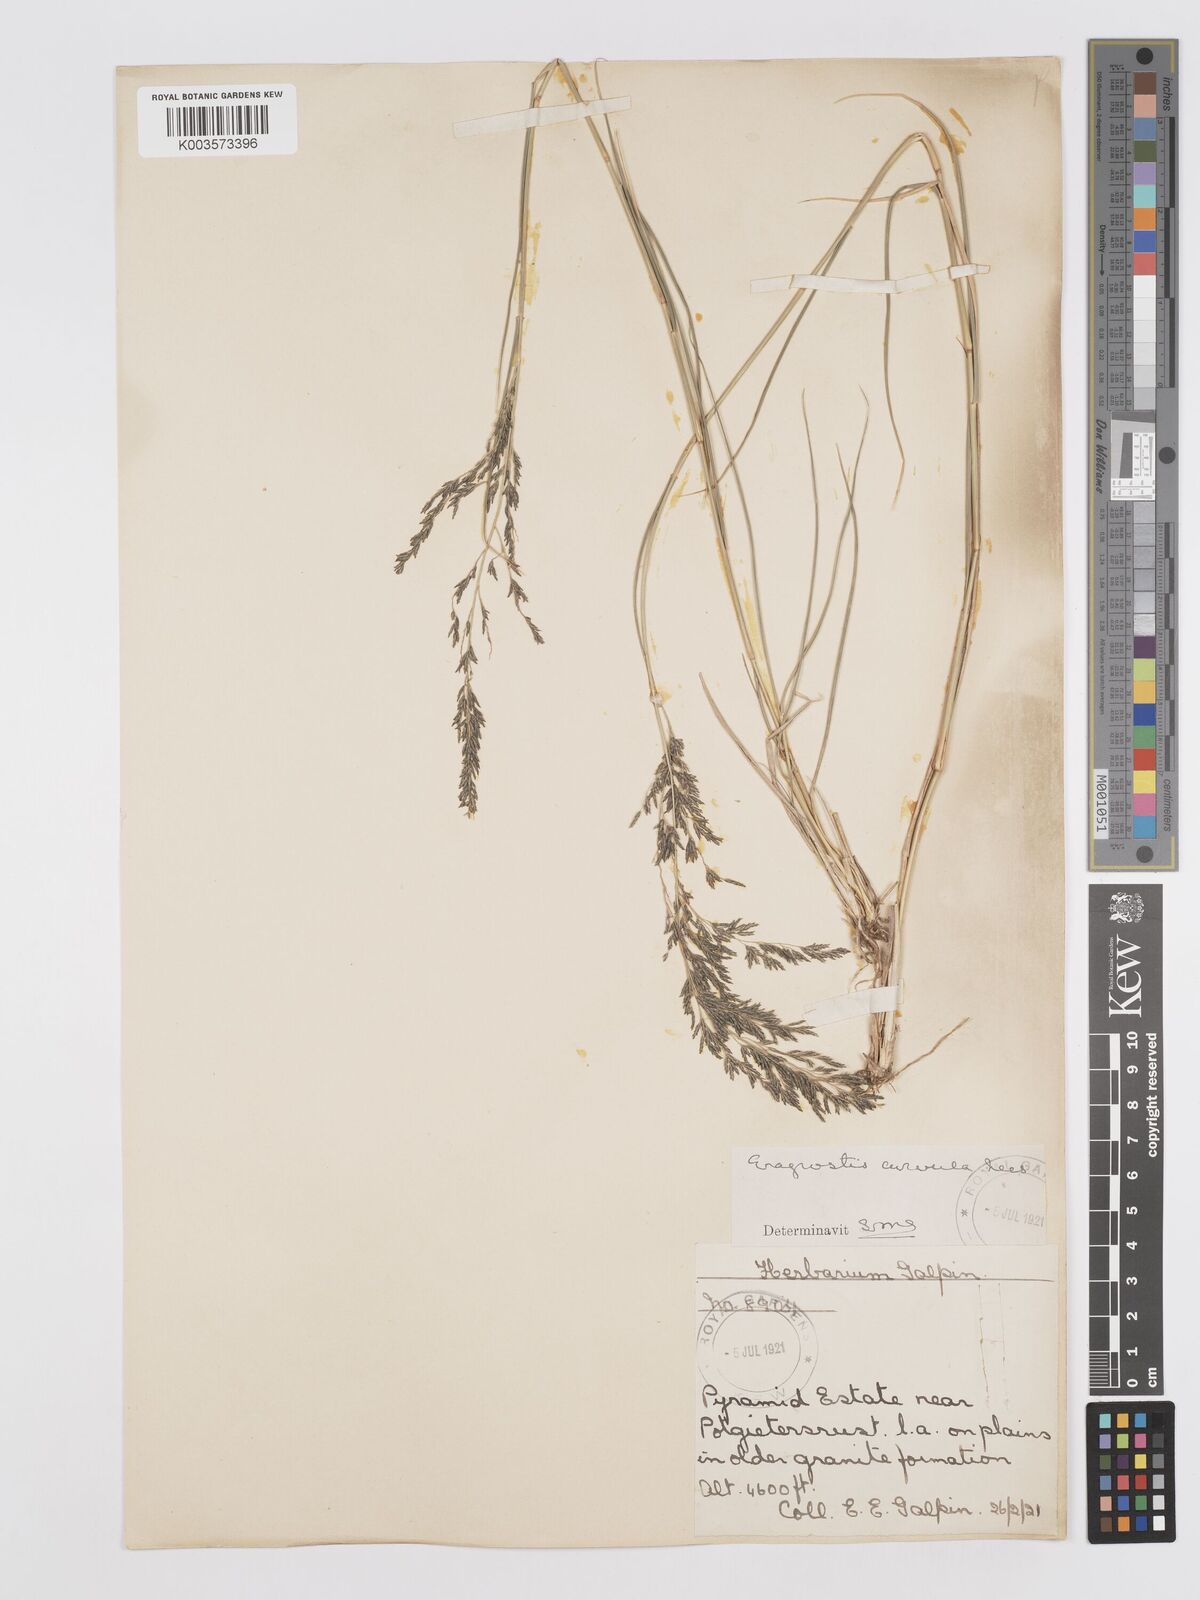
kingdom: Plantae
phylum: Tracheophyta
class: Liliopsida
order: Poales
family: Poaceae
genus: Eragrostis
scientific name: Eragrostis lehmanniana
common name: Lehmann lovegrass
